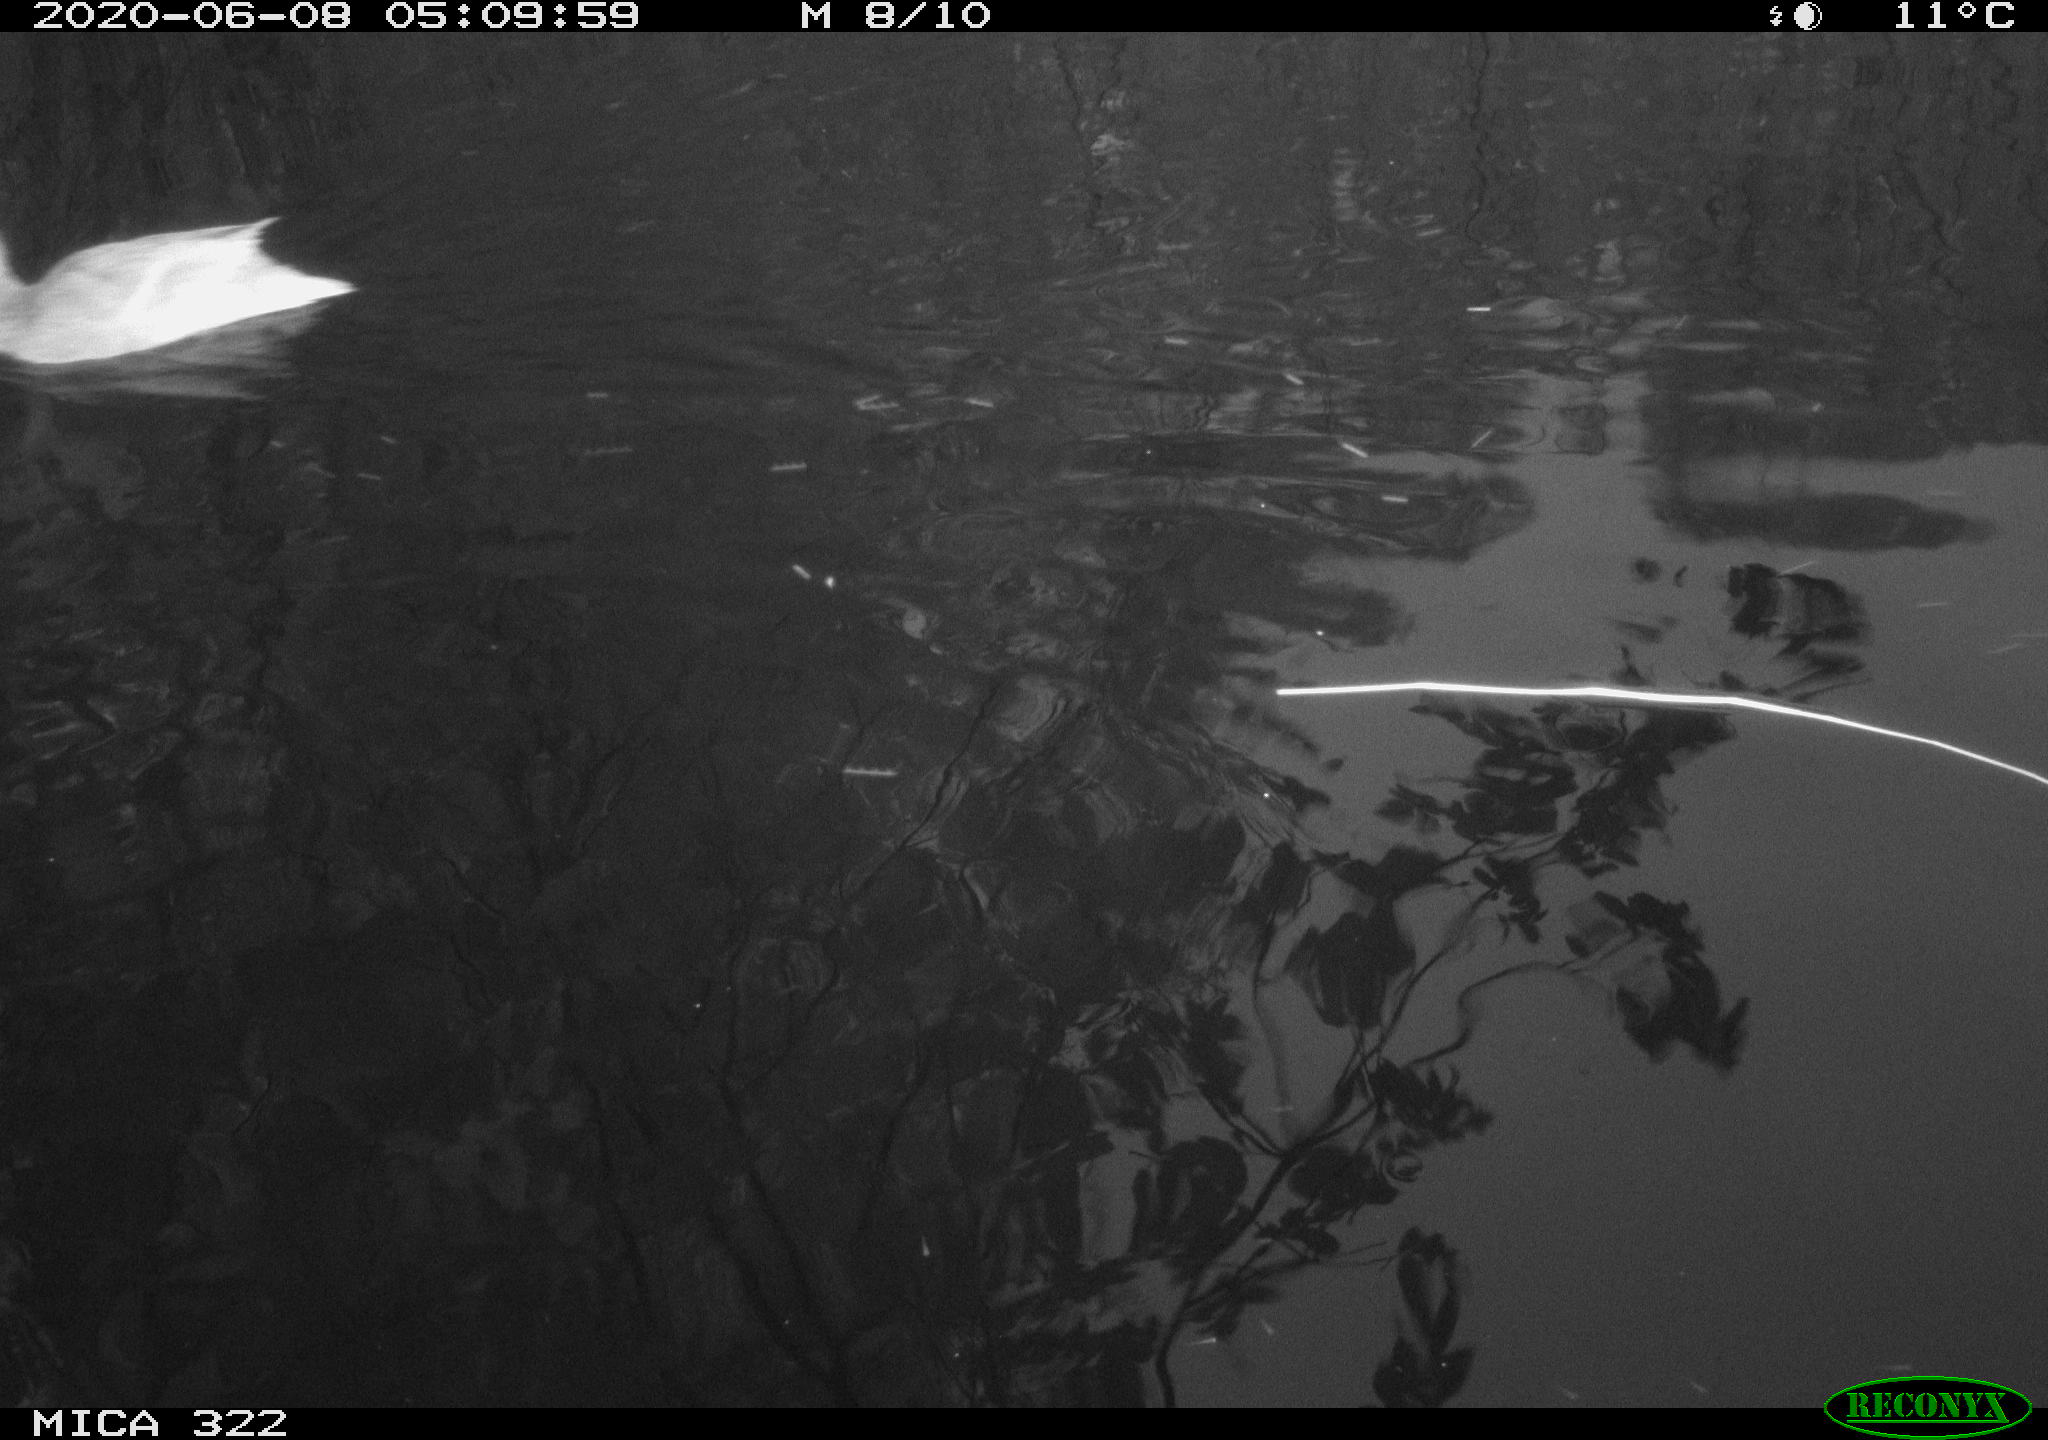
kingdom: Animalia
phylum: Chordata
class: Aves
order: Anseriformes
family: Anatidae
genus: Anas
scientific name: Anas platyrhynchos
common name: Mallard
